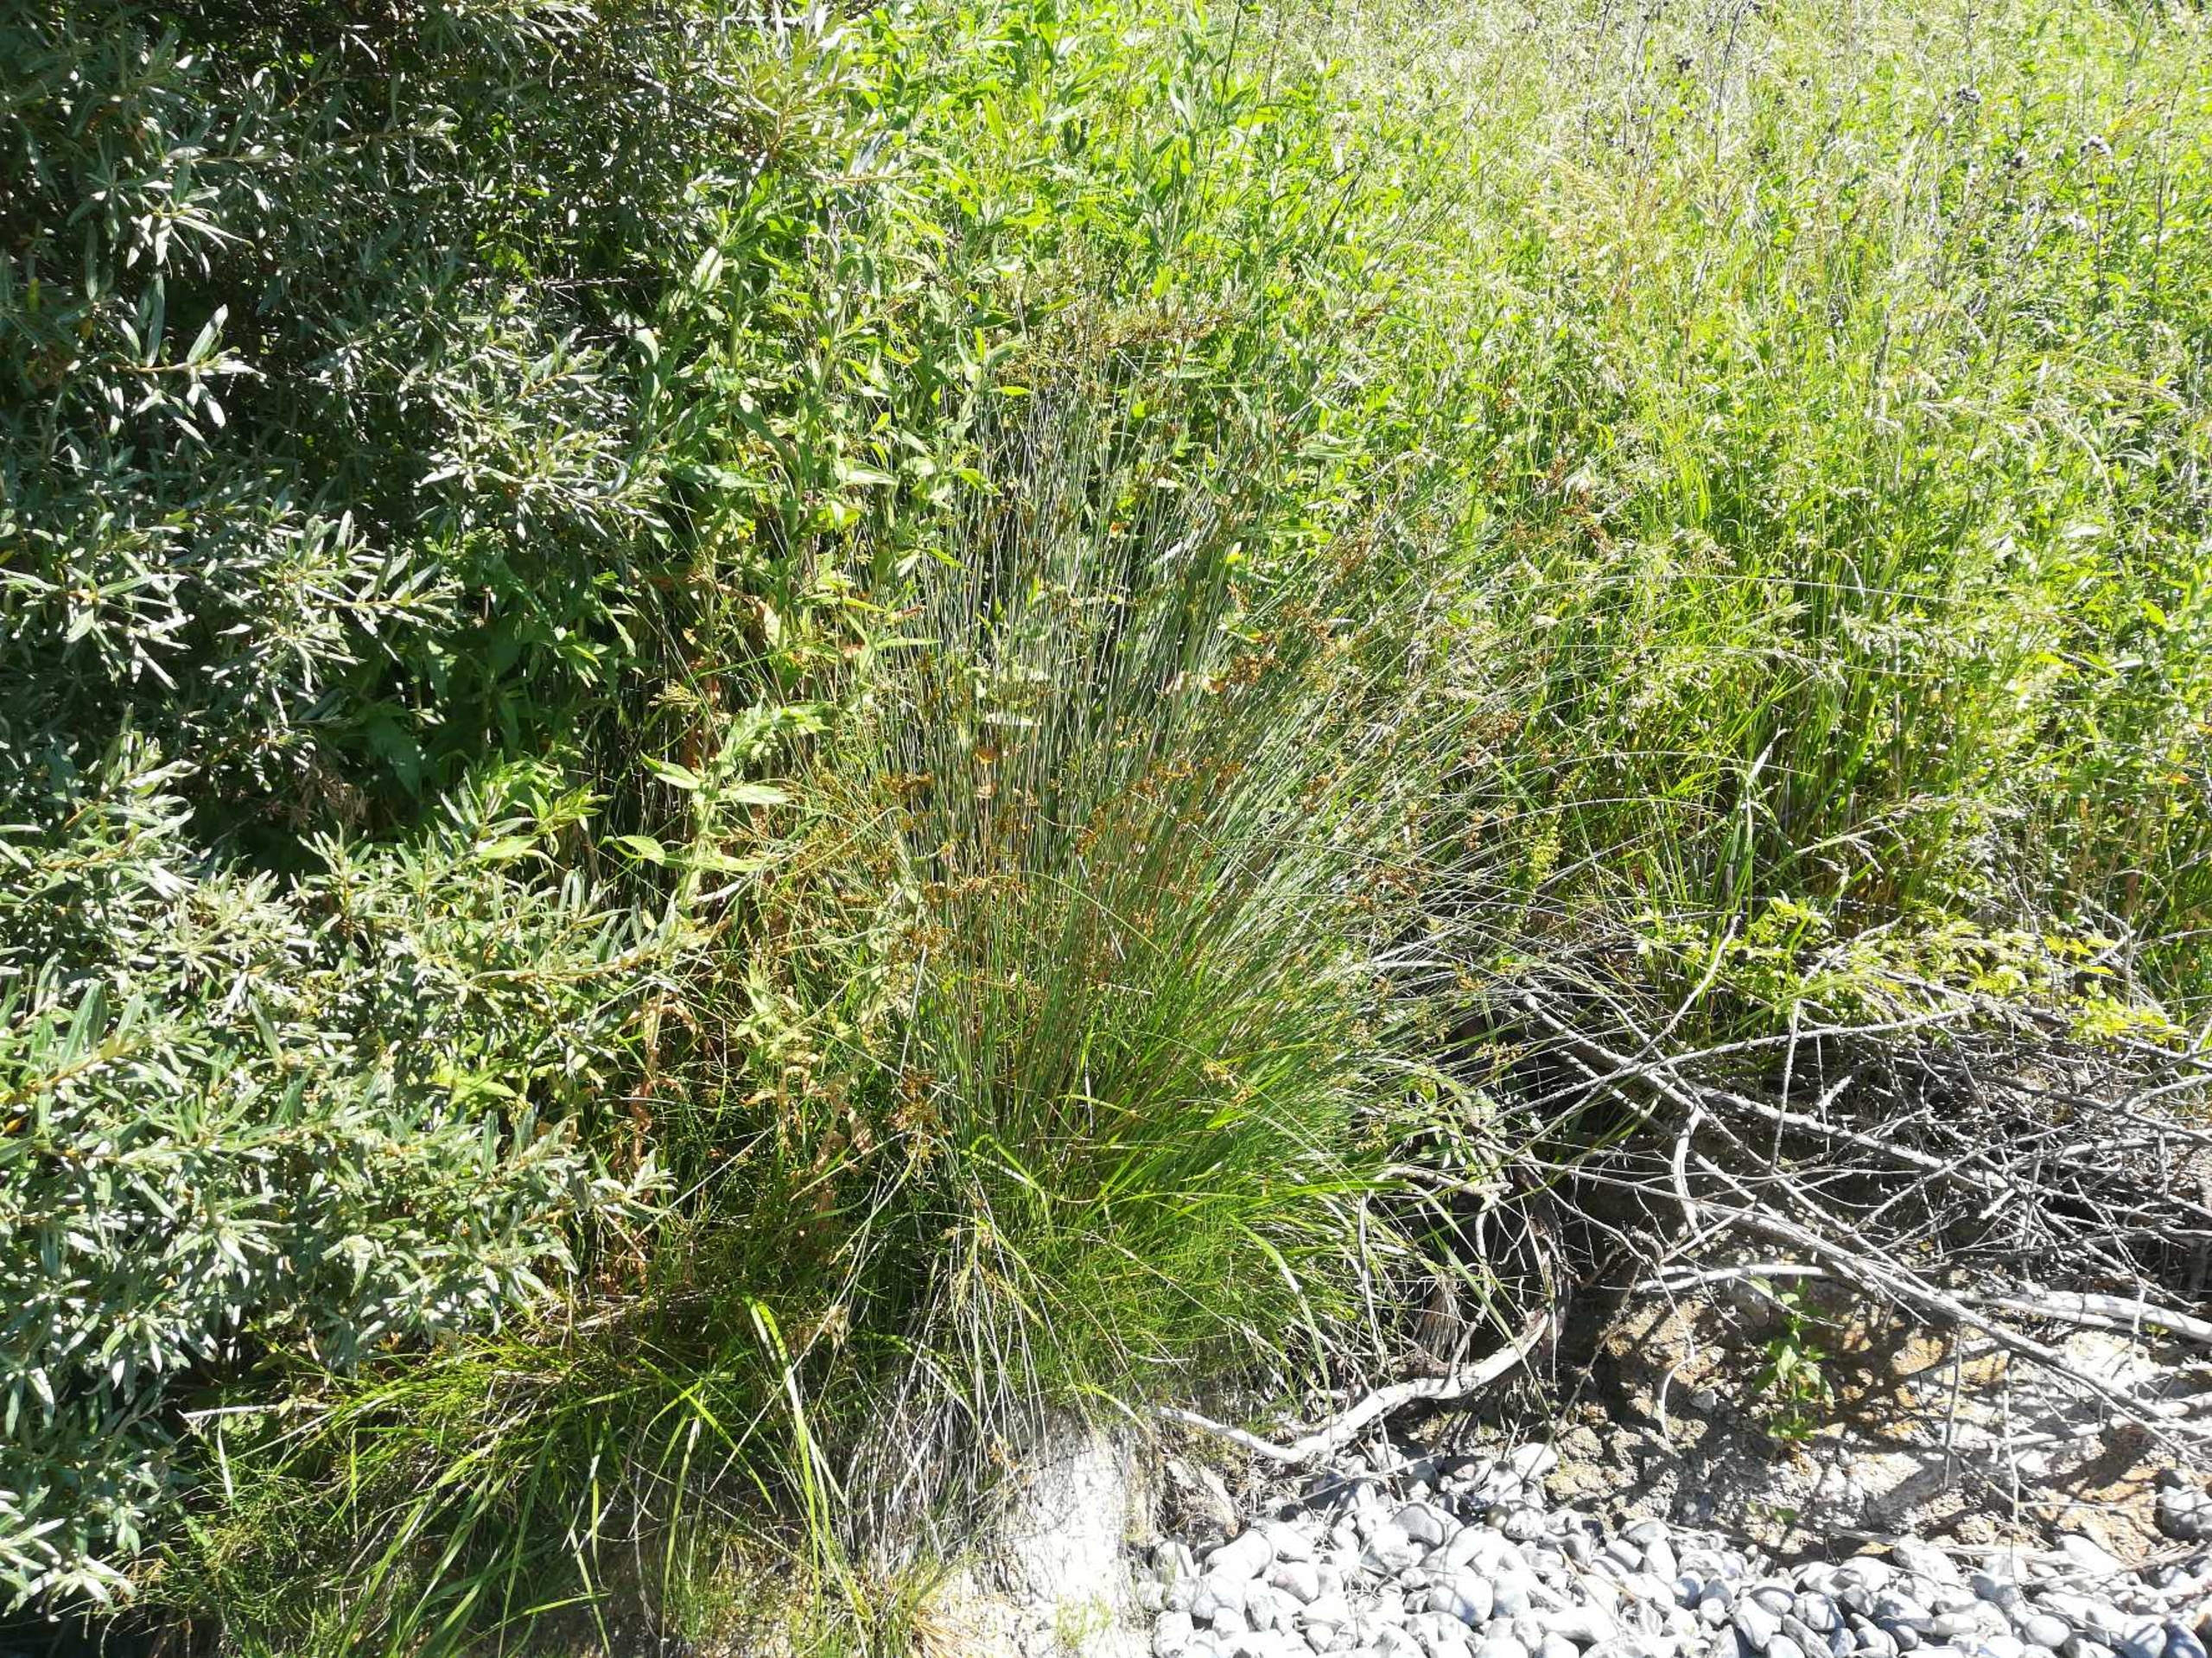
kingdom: Plantae
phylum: Tracheophyta
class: Liliopsida
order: Poales
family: Juncaceae
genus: Juncus
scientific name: Juncus inflexus
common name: Blågrå siv
